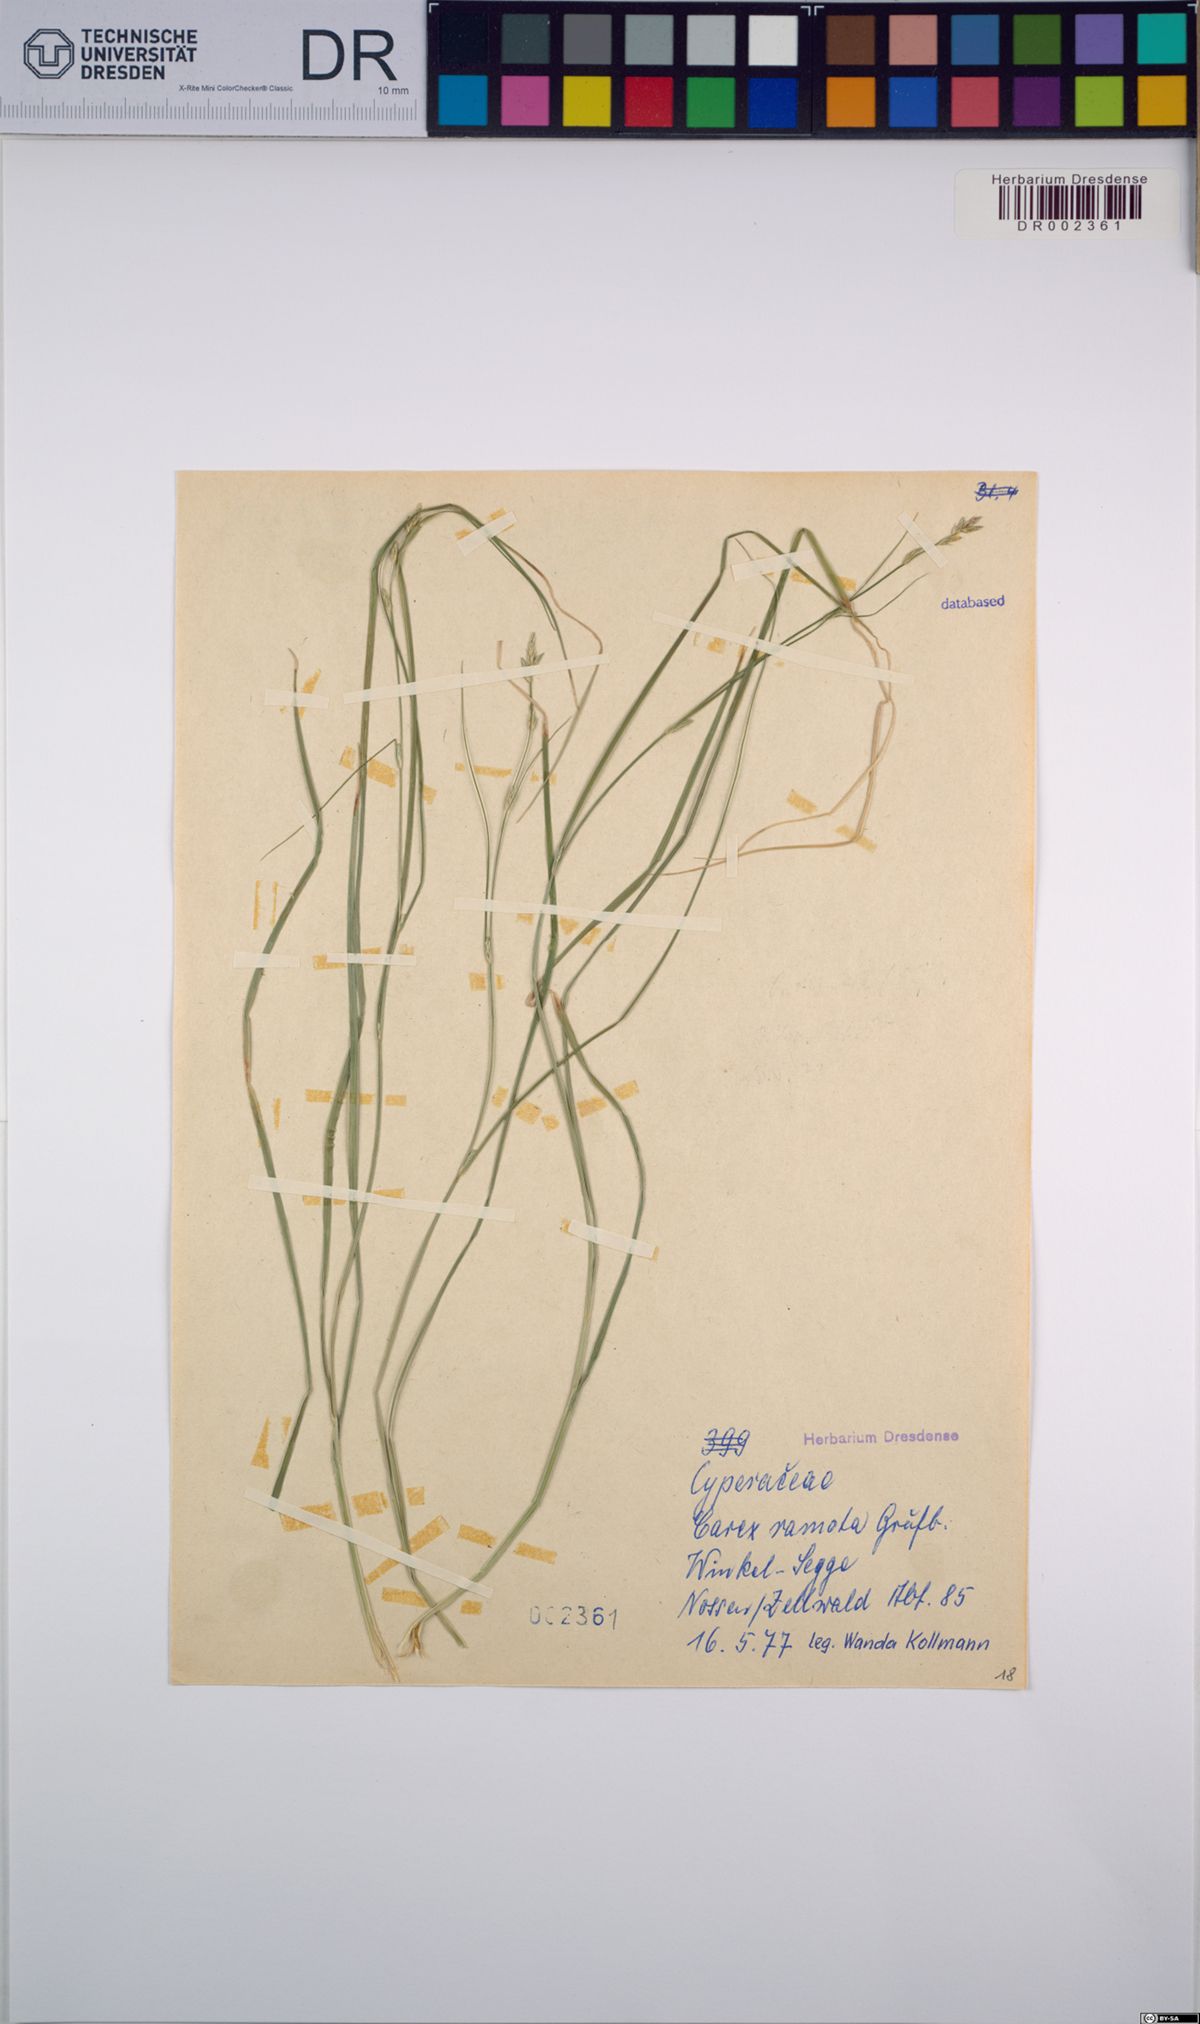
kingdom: Plantae
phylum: Tracheophyta
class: Liliopsida
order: Poales
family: Cyperaceae
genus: Carex
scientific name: Carex remota
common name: Remote sedge
